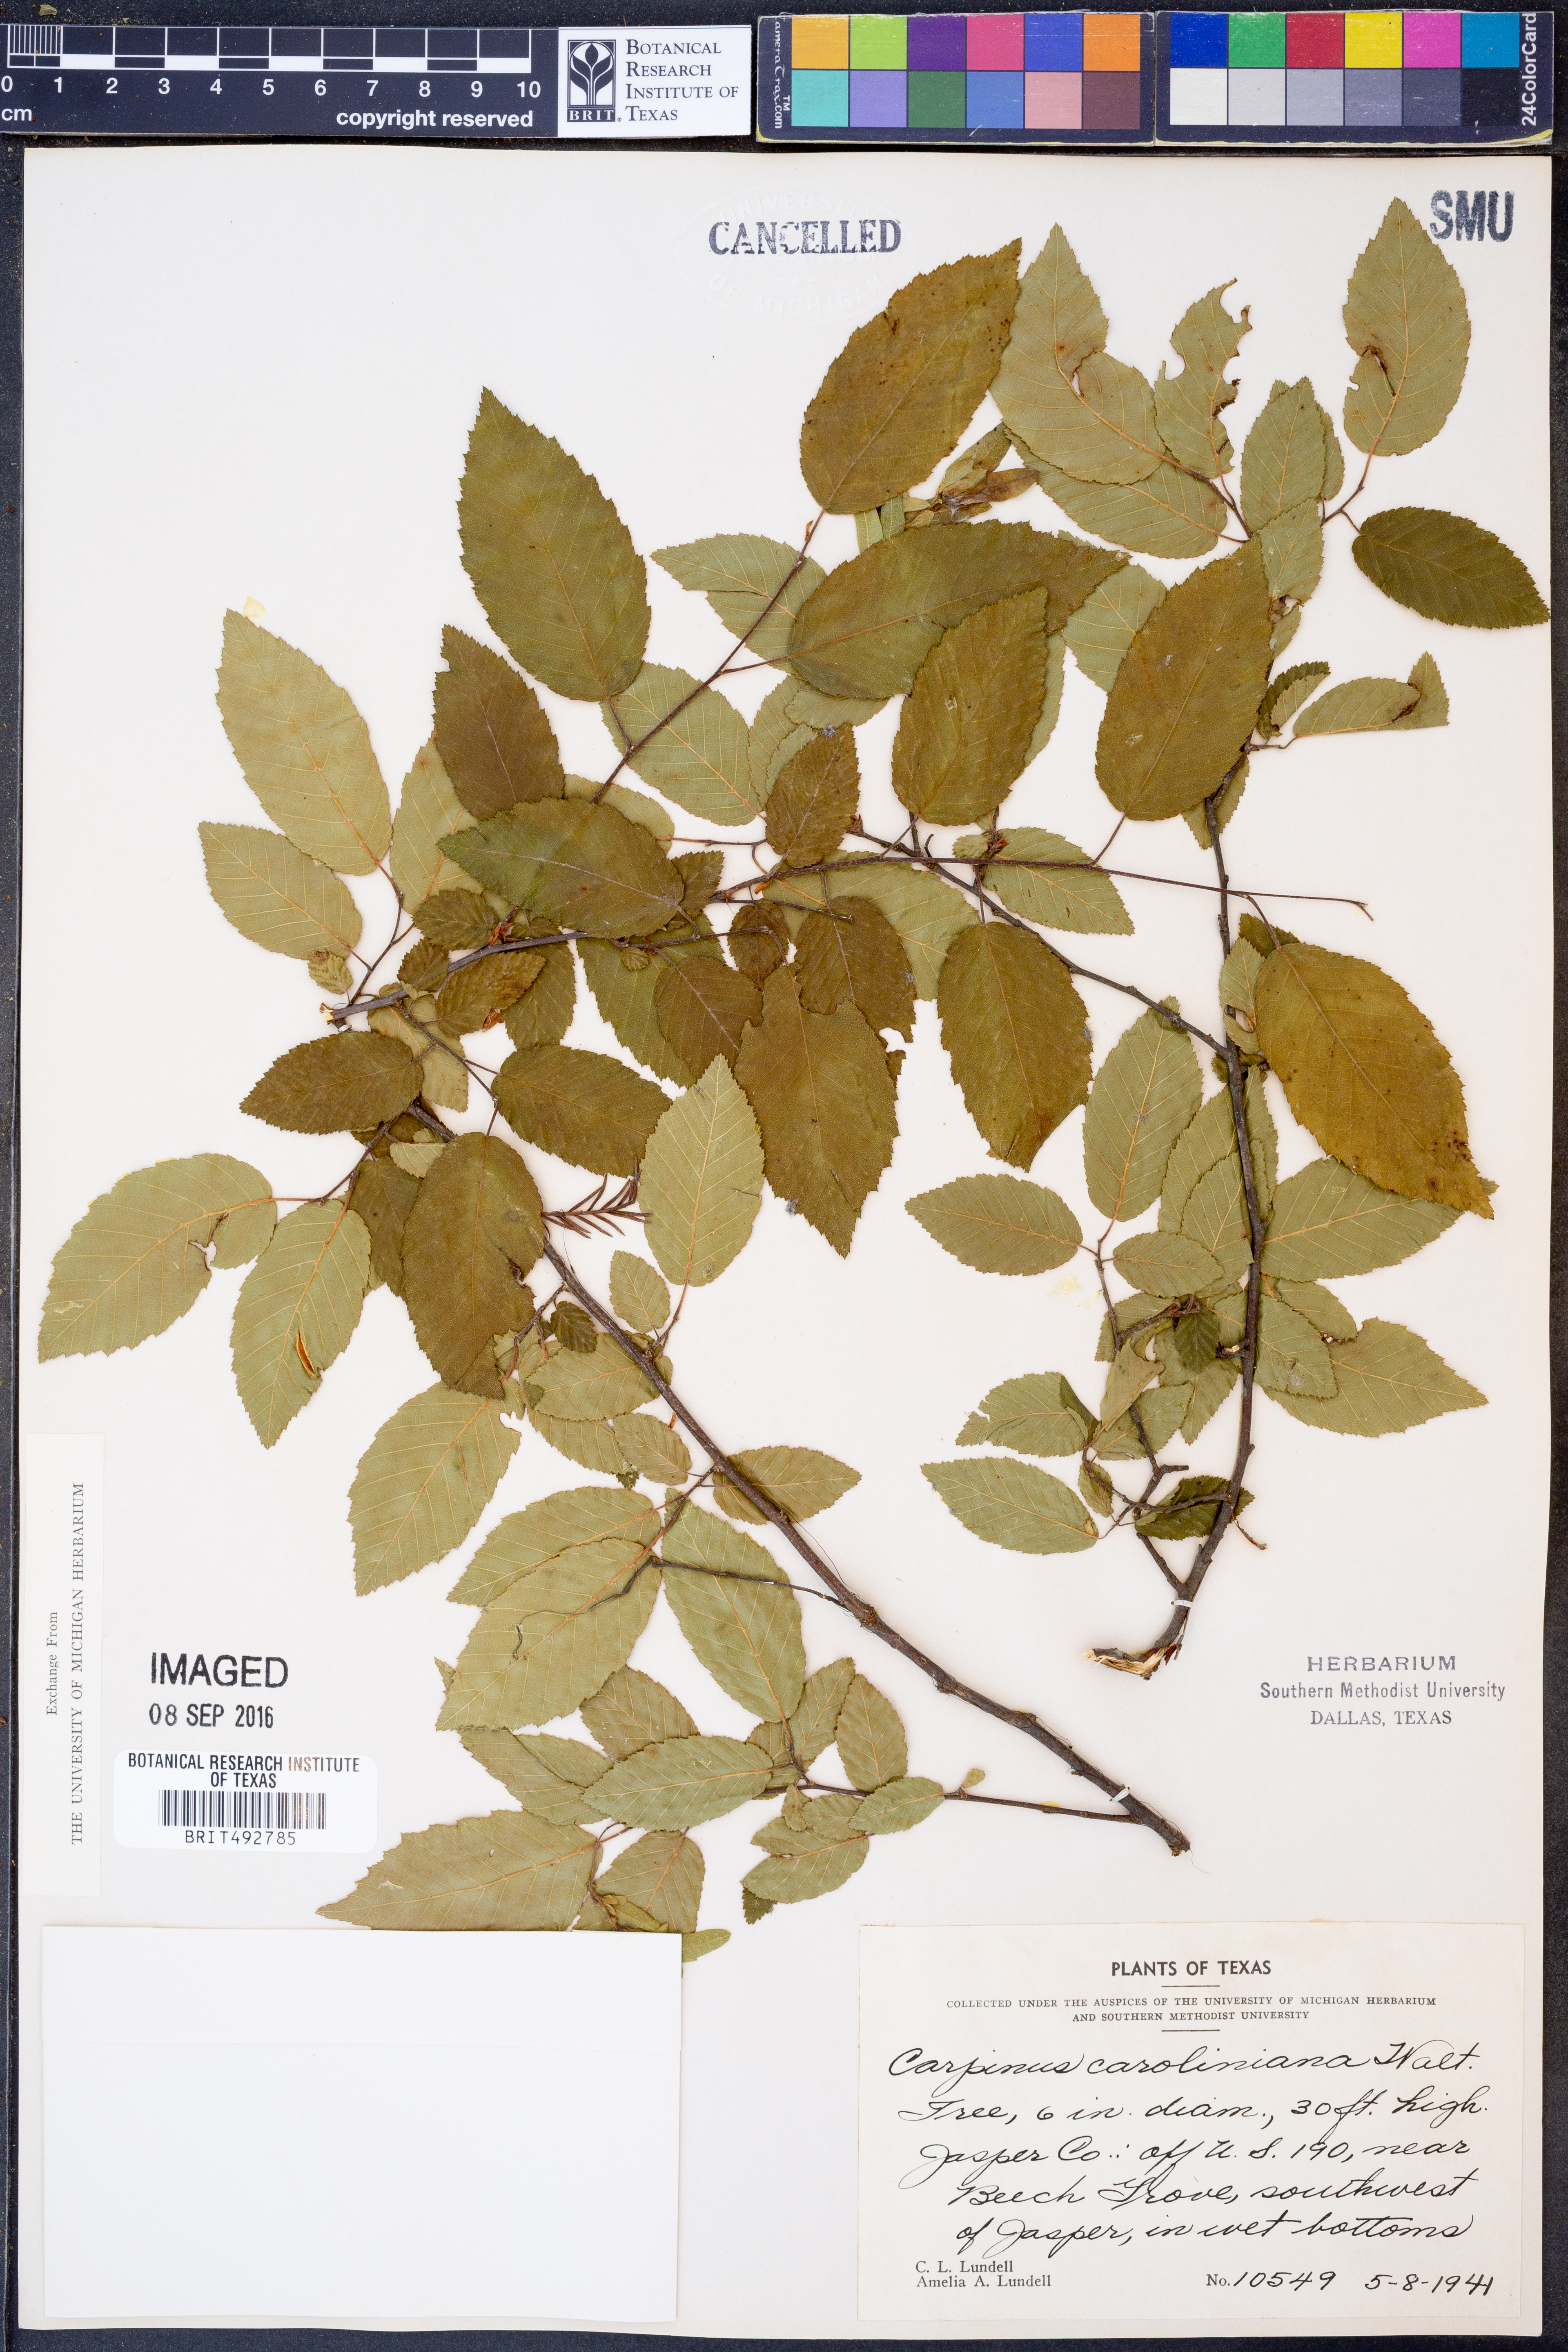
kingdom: Plantae
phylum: Tracheophyta
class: Magnoliopsida
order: Fagales
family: Betulaceae
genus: Carpinus
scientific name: Carpinus caroliniana
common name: American hornbeam
